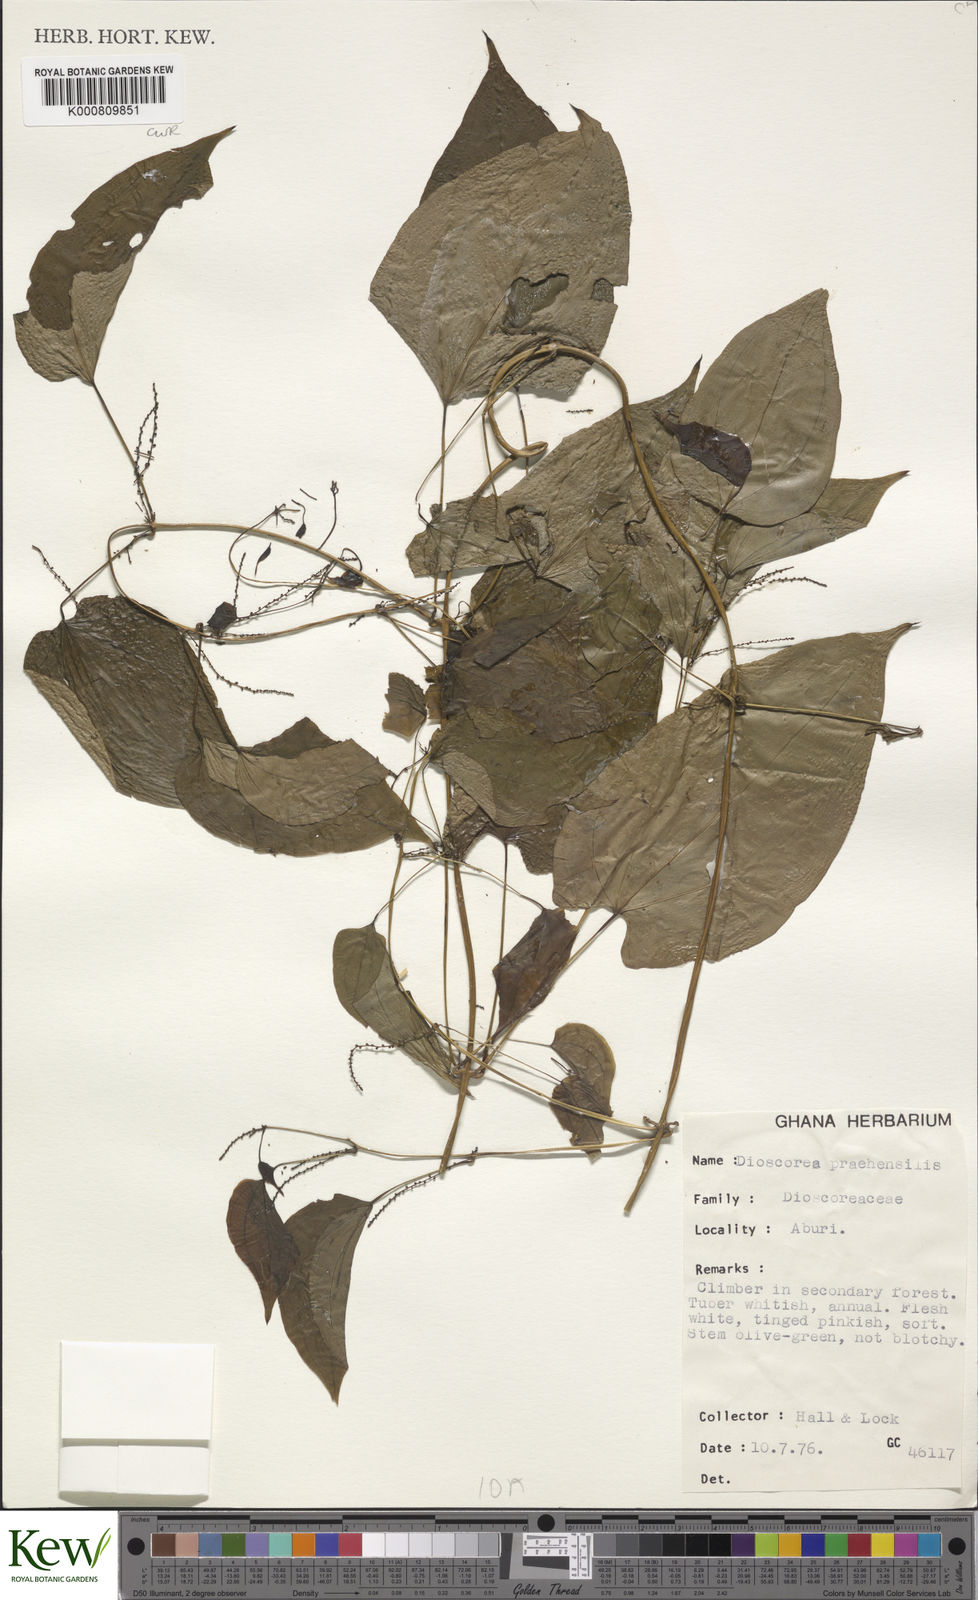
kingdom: Plantae
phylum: Tracheophyta
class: Liliopsida
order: Dioscoreales
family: Dioscoreaceae
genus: Dioscorea
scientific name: Dioscorea praehensilis
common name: Bush yam
